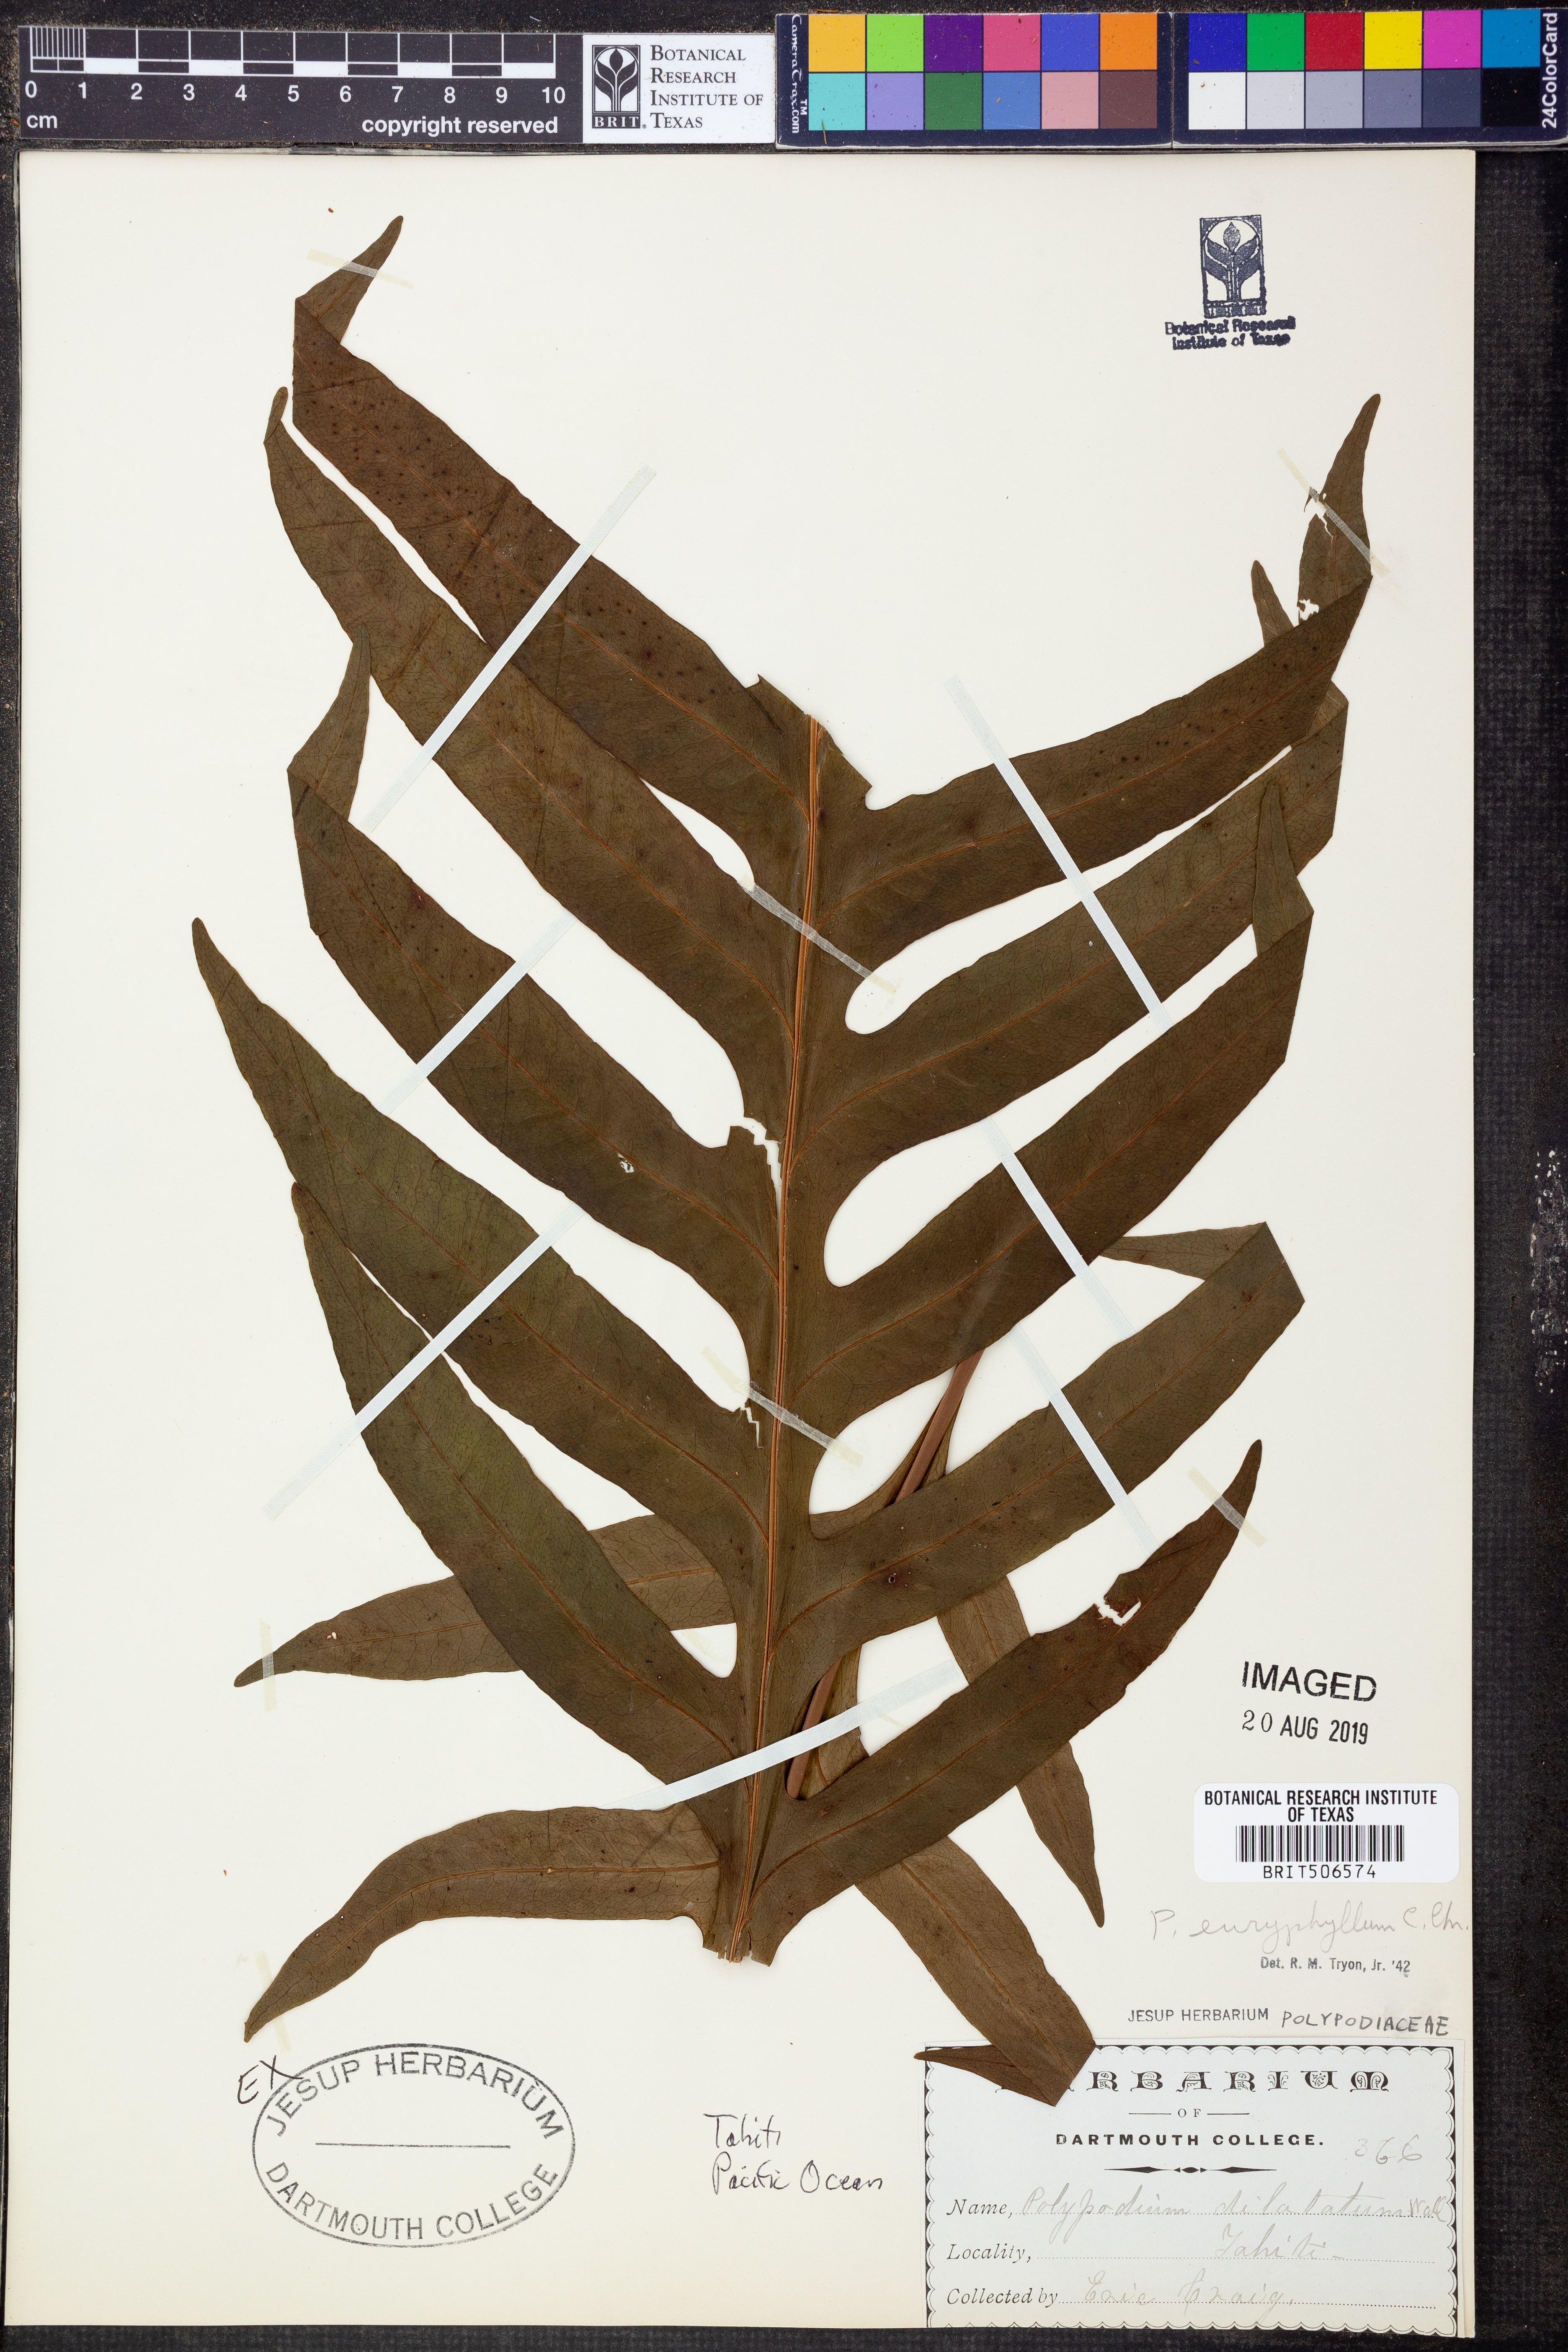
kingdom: Plantae
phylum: Tracheophyta
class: Polypodiopsida
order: Polypodiales
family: Polypodiaceae
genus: Microsorum
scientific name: Microsorum commutatum
